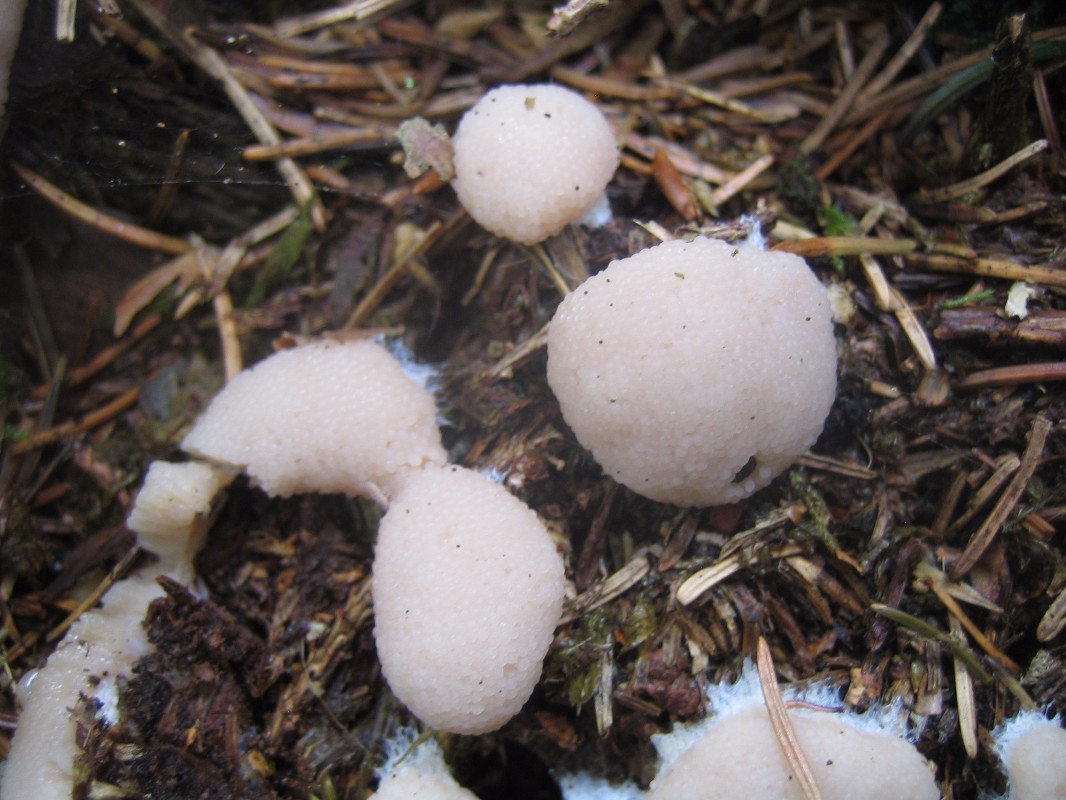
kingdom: Protozoa
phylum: Mycetozoa
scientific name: Mycetozoa
